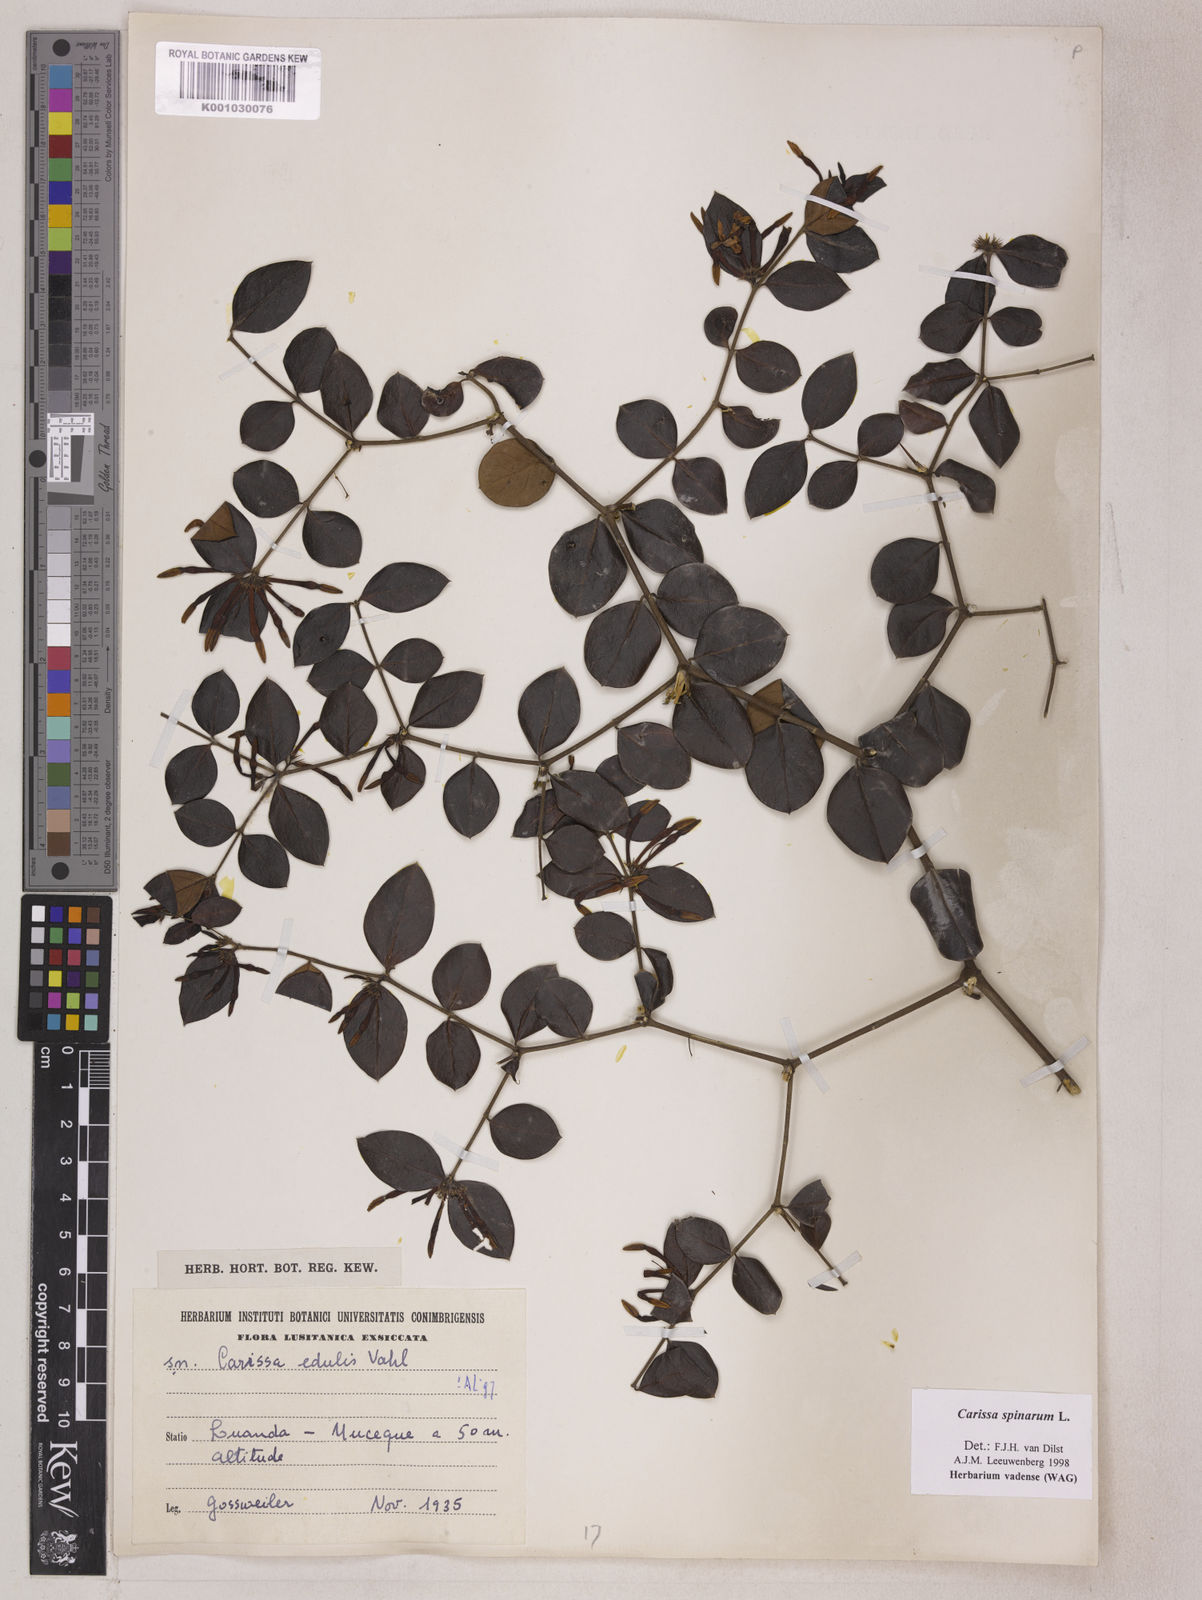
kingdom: Plantae
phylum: Tracheophyta
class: Magnoliopsida
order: Gentianales
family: Apocynaceae
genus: Carissa
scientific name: Carissa spinarum
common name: Egyptian carissa
